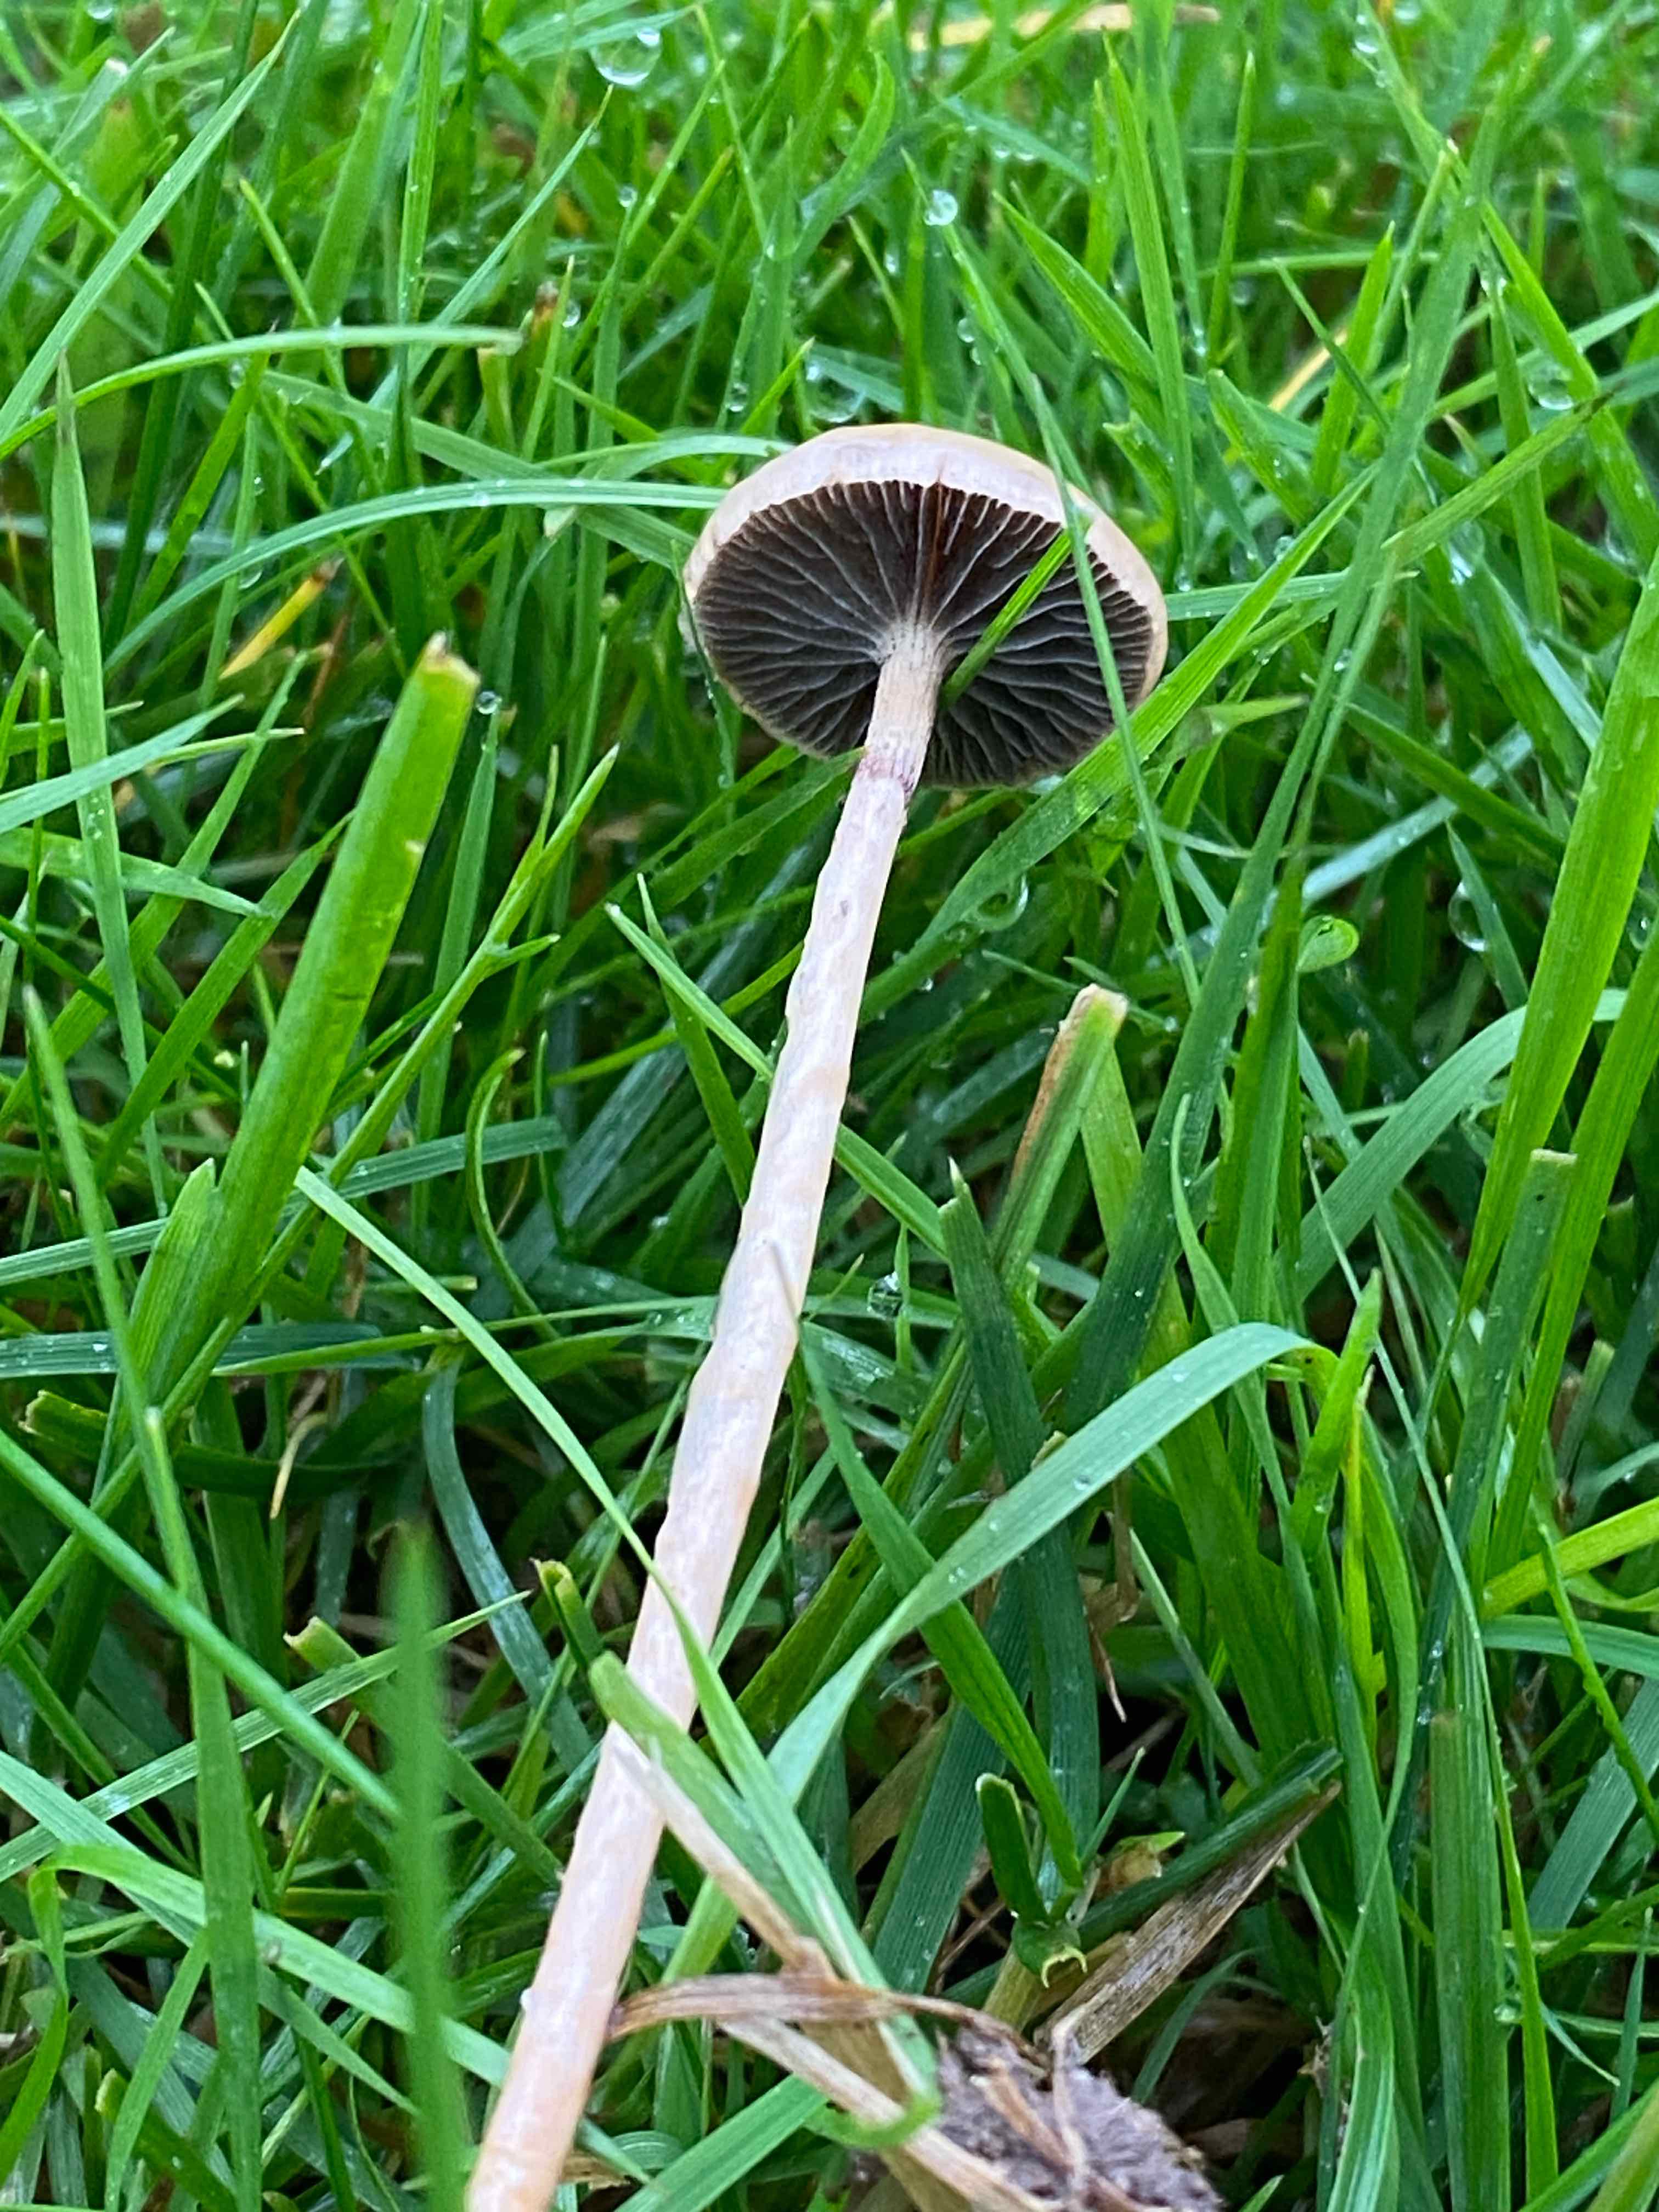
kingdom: Fungi
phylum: Basidiomycota
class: Agaricomycetes
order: Agaricales
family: Strophariaceae
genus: Protostropharia
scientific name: Protostropharia semiglobata
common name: halvkugleformet bredblad
